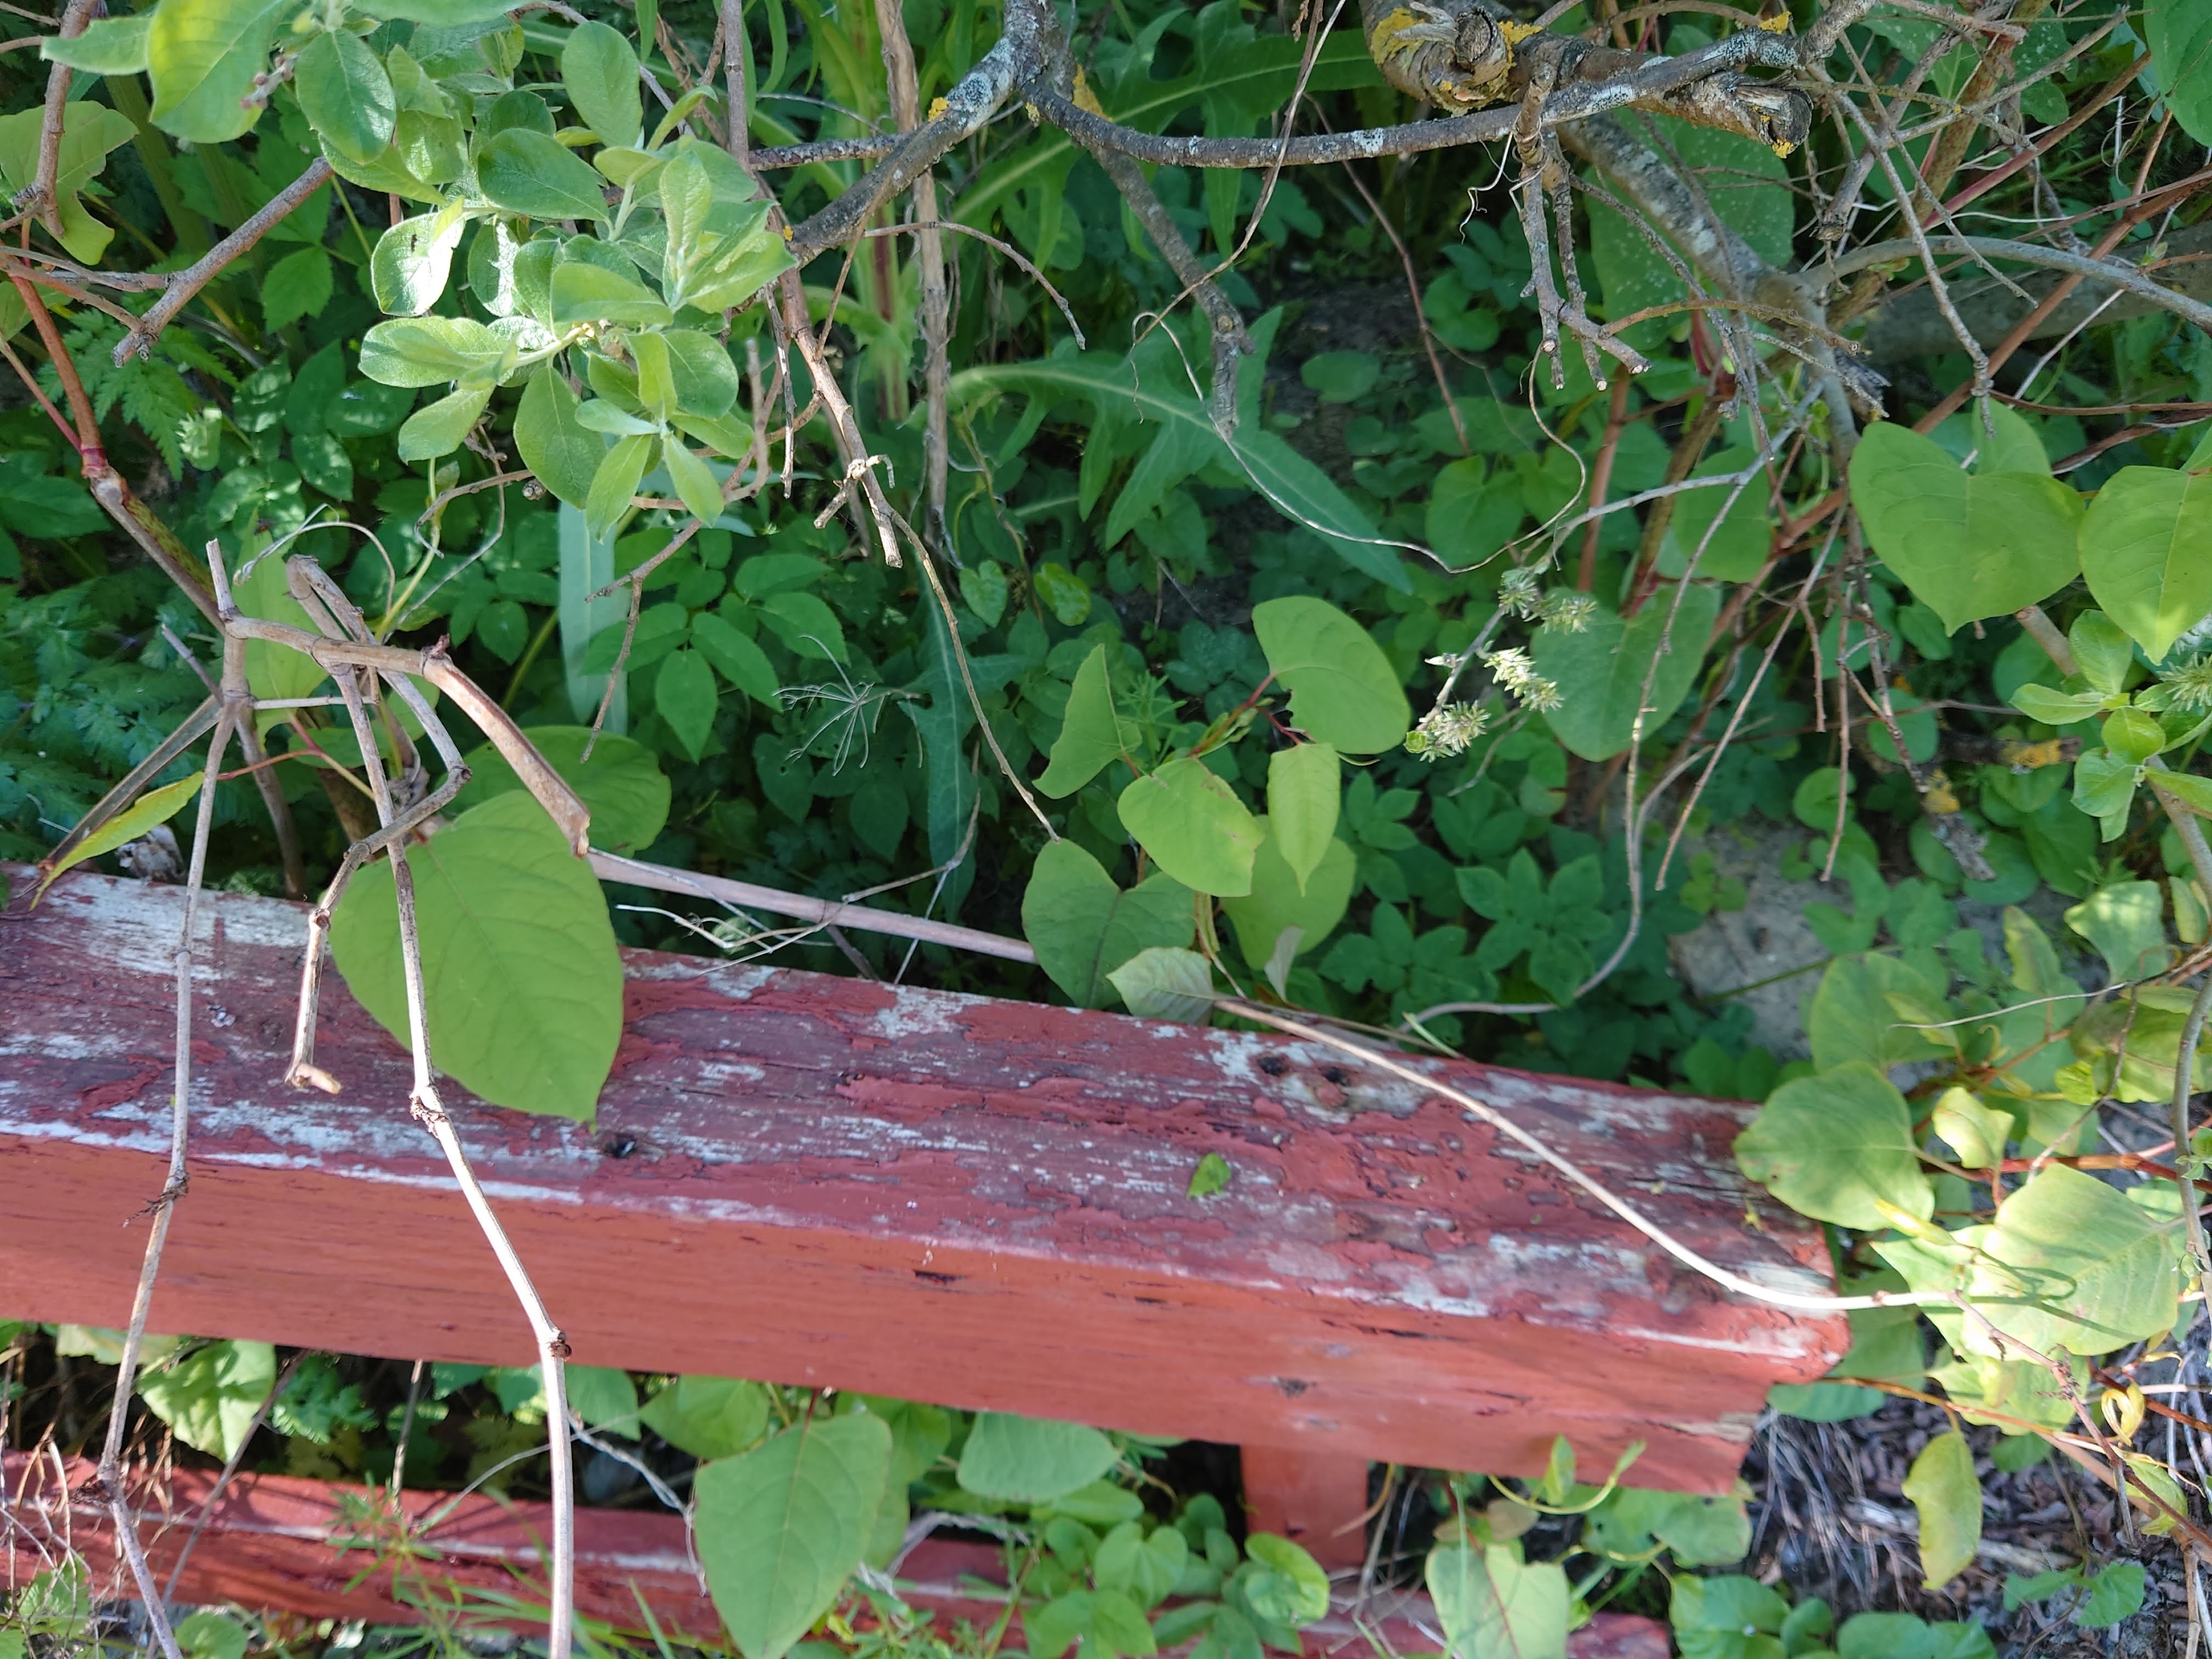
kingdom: Plantae
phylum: Tracheophyta
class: Magnoliopsida
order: Caryophyllales
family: Polygonaceae
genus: Reynoutria
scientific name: Reynoutria japonica
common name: Japan-pileurt
